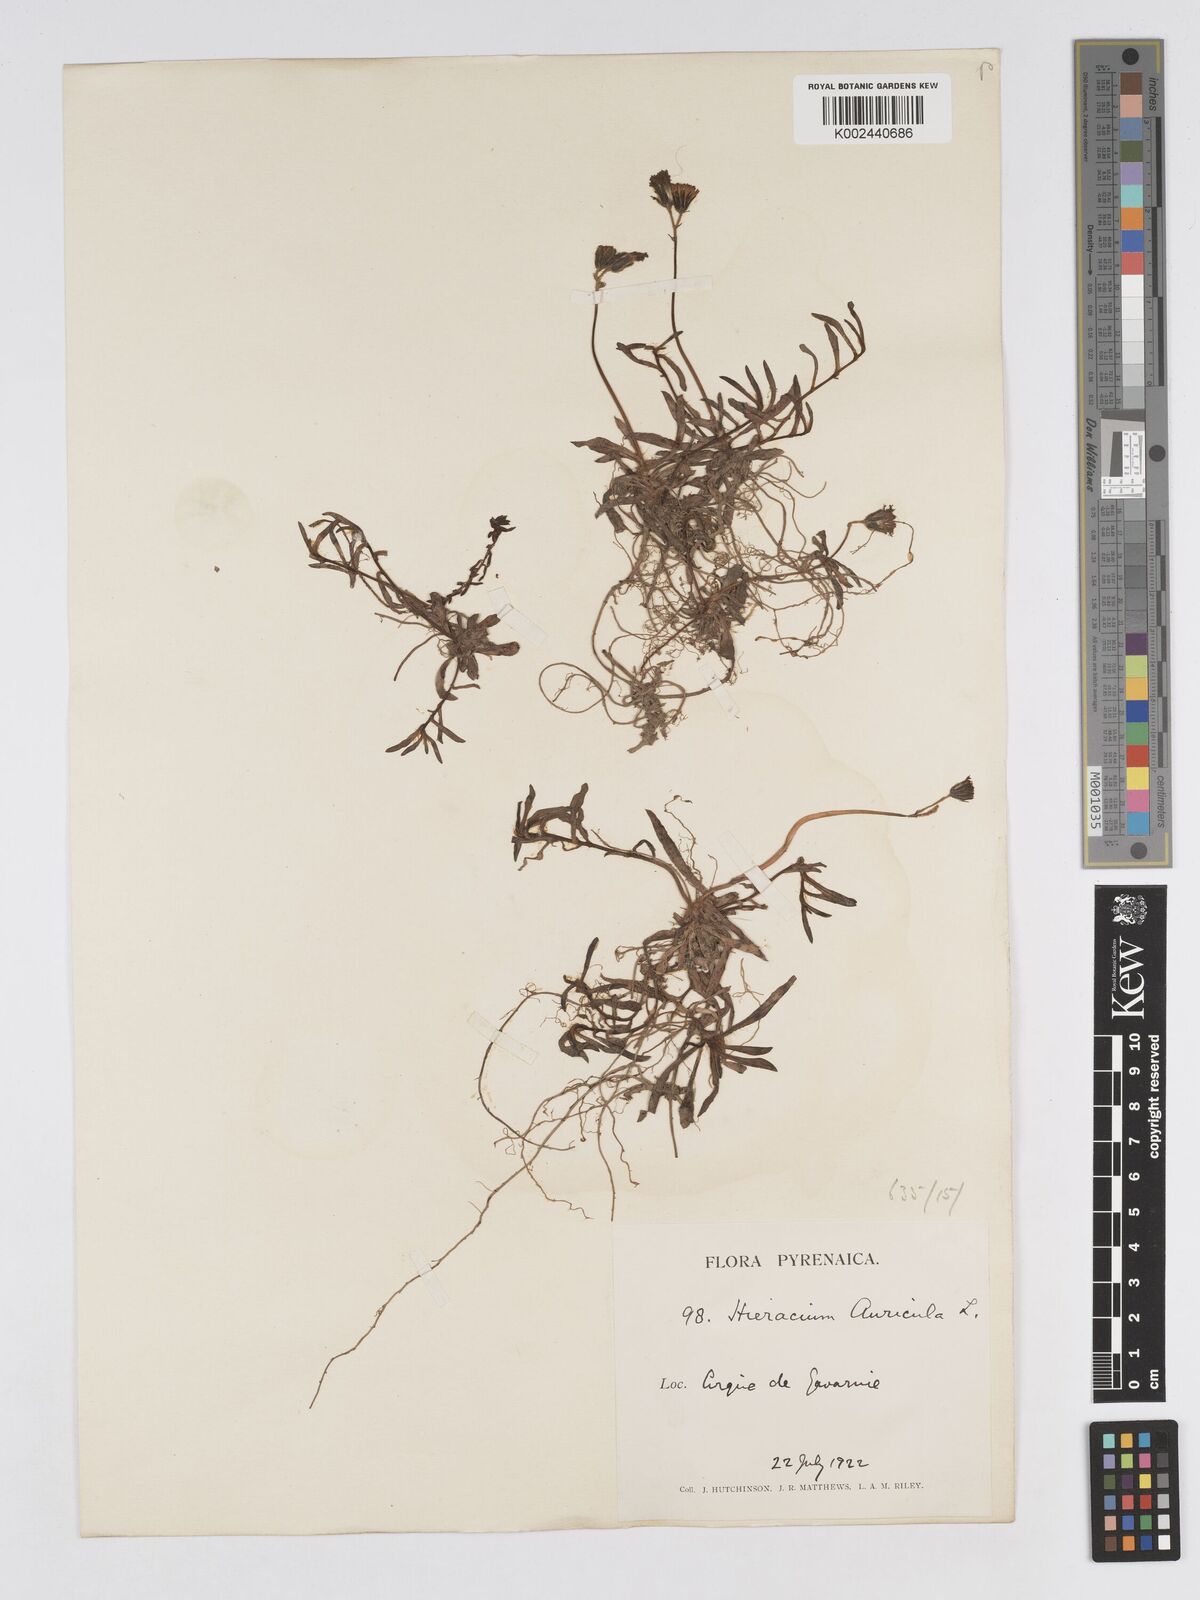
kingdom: Plantae
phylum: Tracheophyta
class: Magnoliopsida
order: Asterales
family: Asteraceae
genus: Pilosella
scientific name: Pilosella floribunda
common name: Glaucous hawkweed
